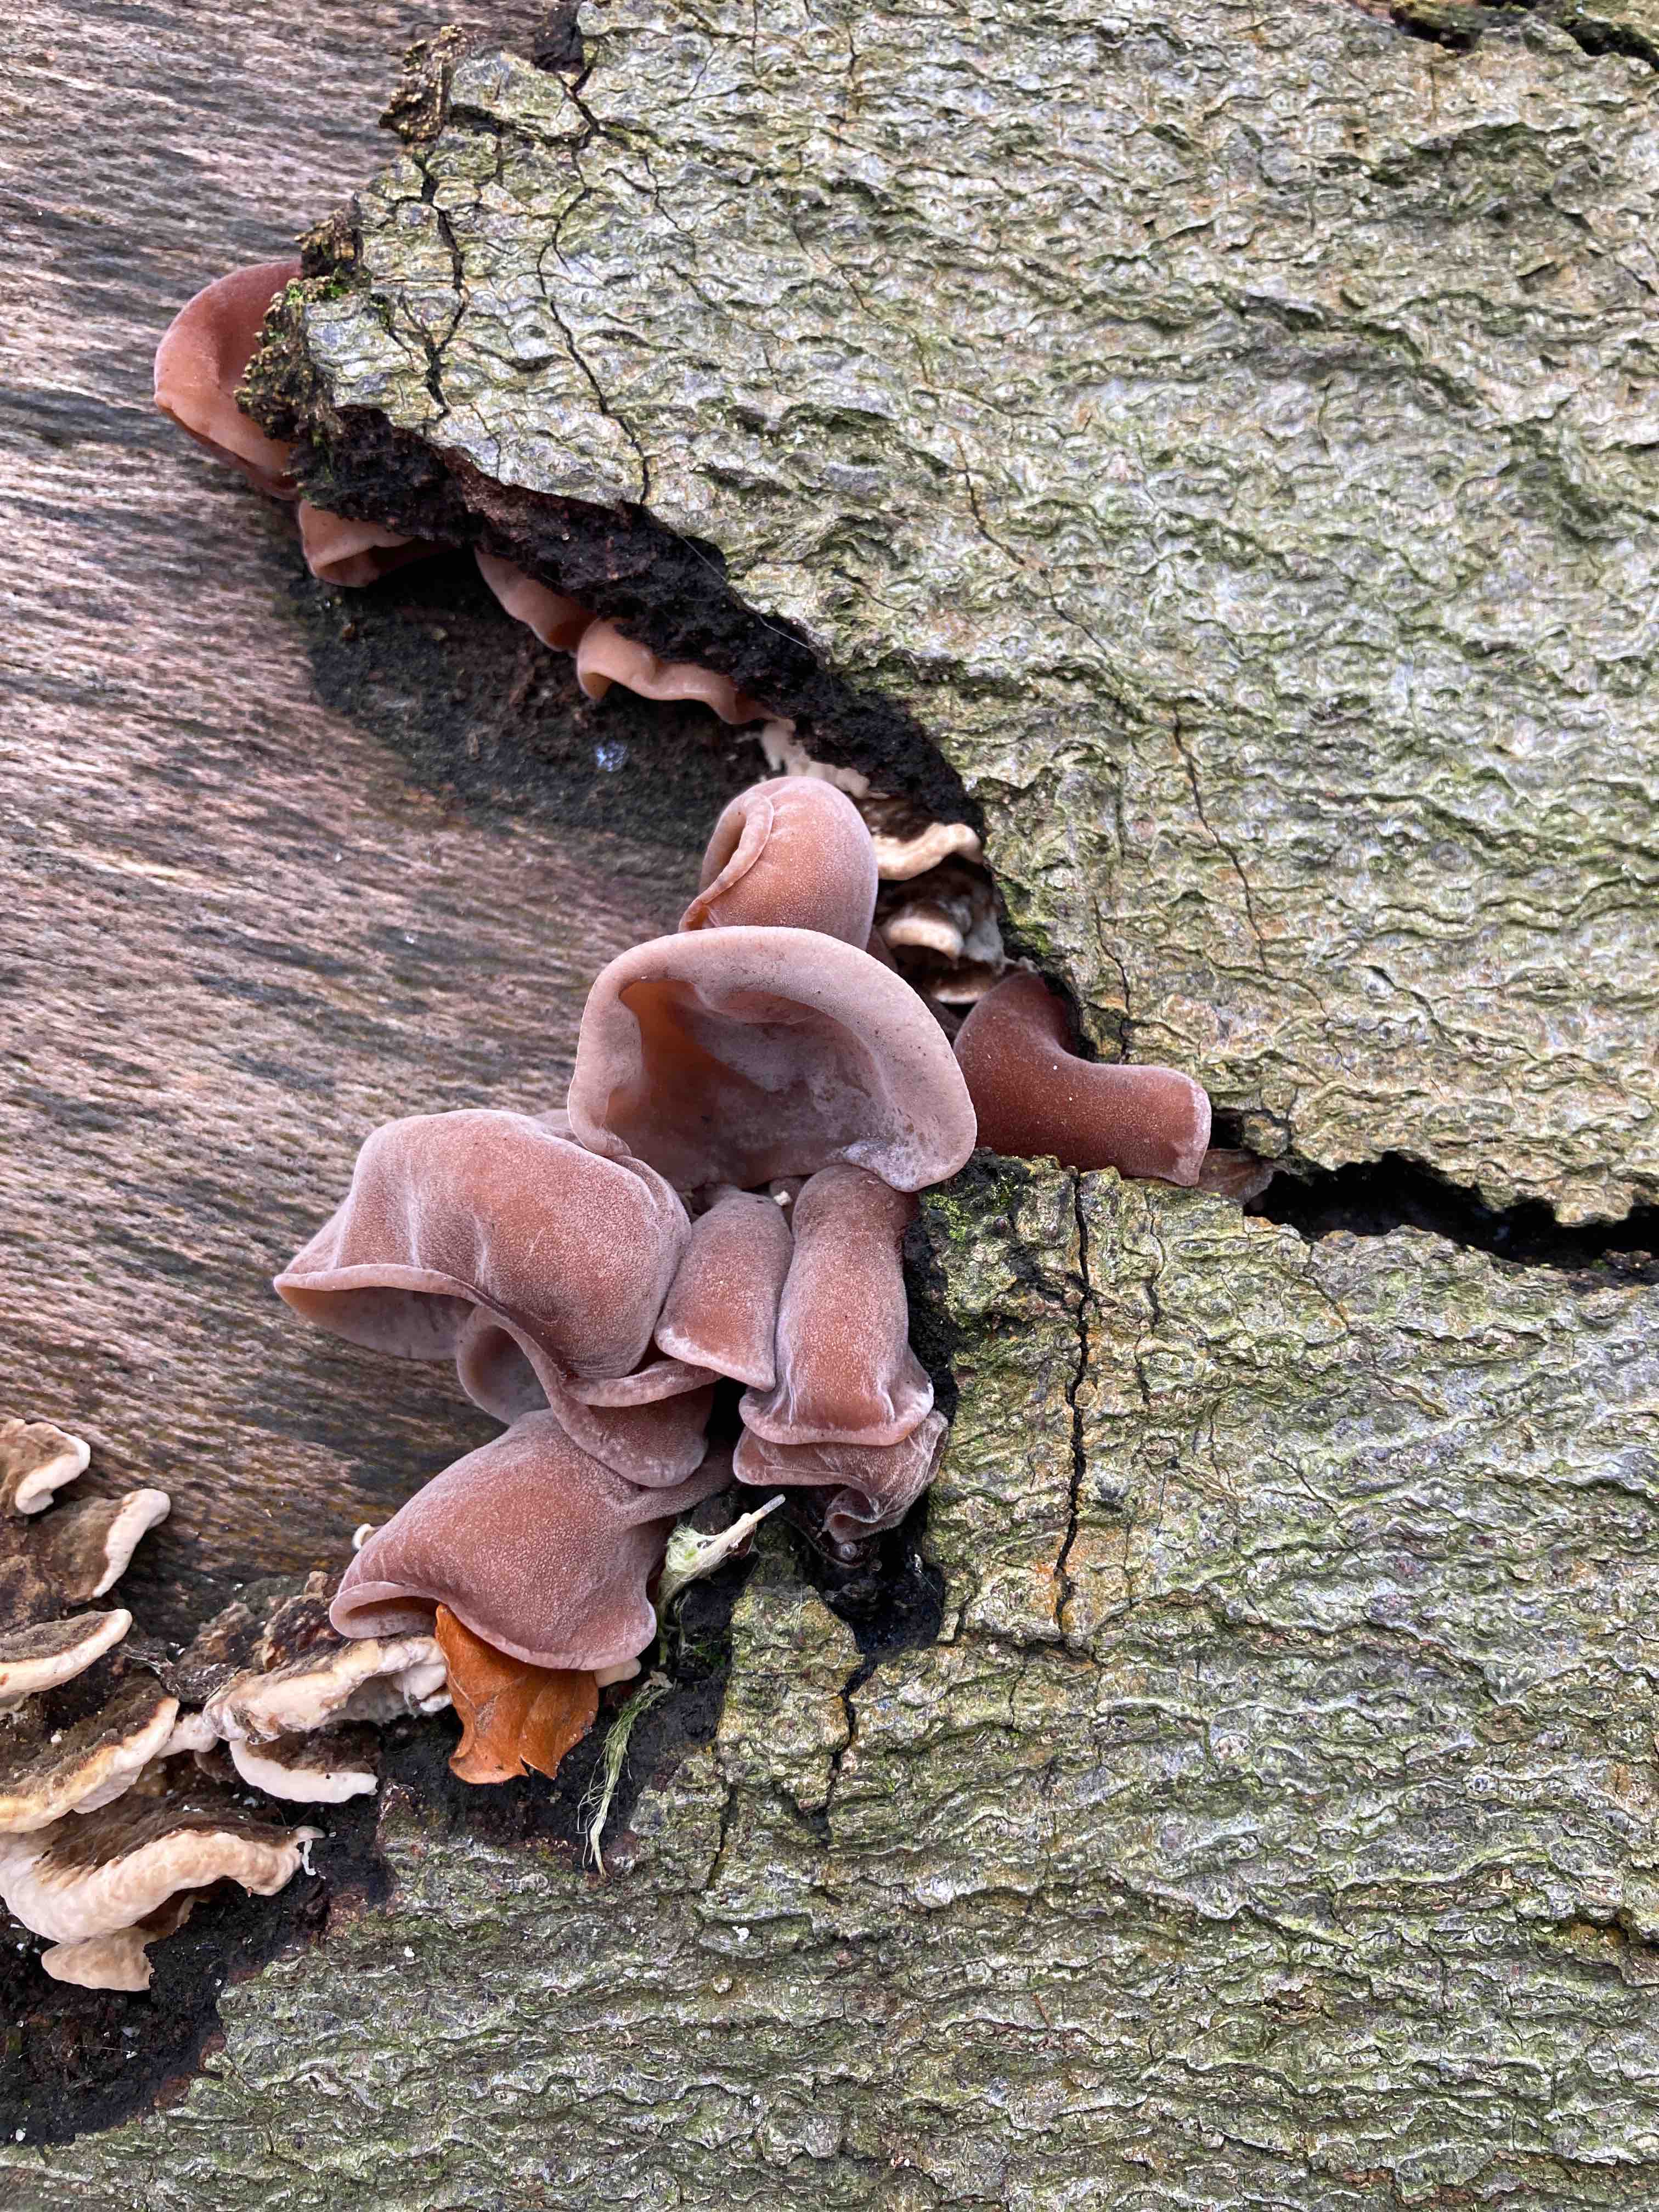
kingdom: Fungi
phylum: Basidiomycota
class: Agaricomycetes
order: Auriculariales
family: Auriculariaceae
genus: Auricularia
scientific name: Auricularia auricula-judae
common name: almindelig judasøre
